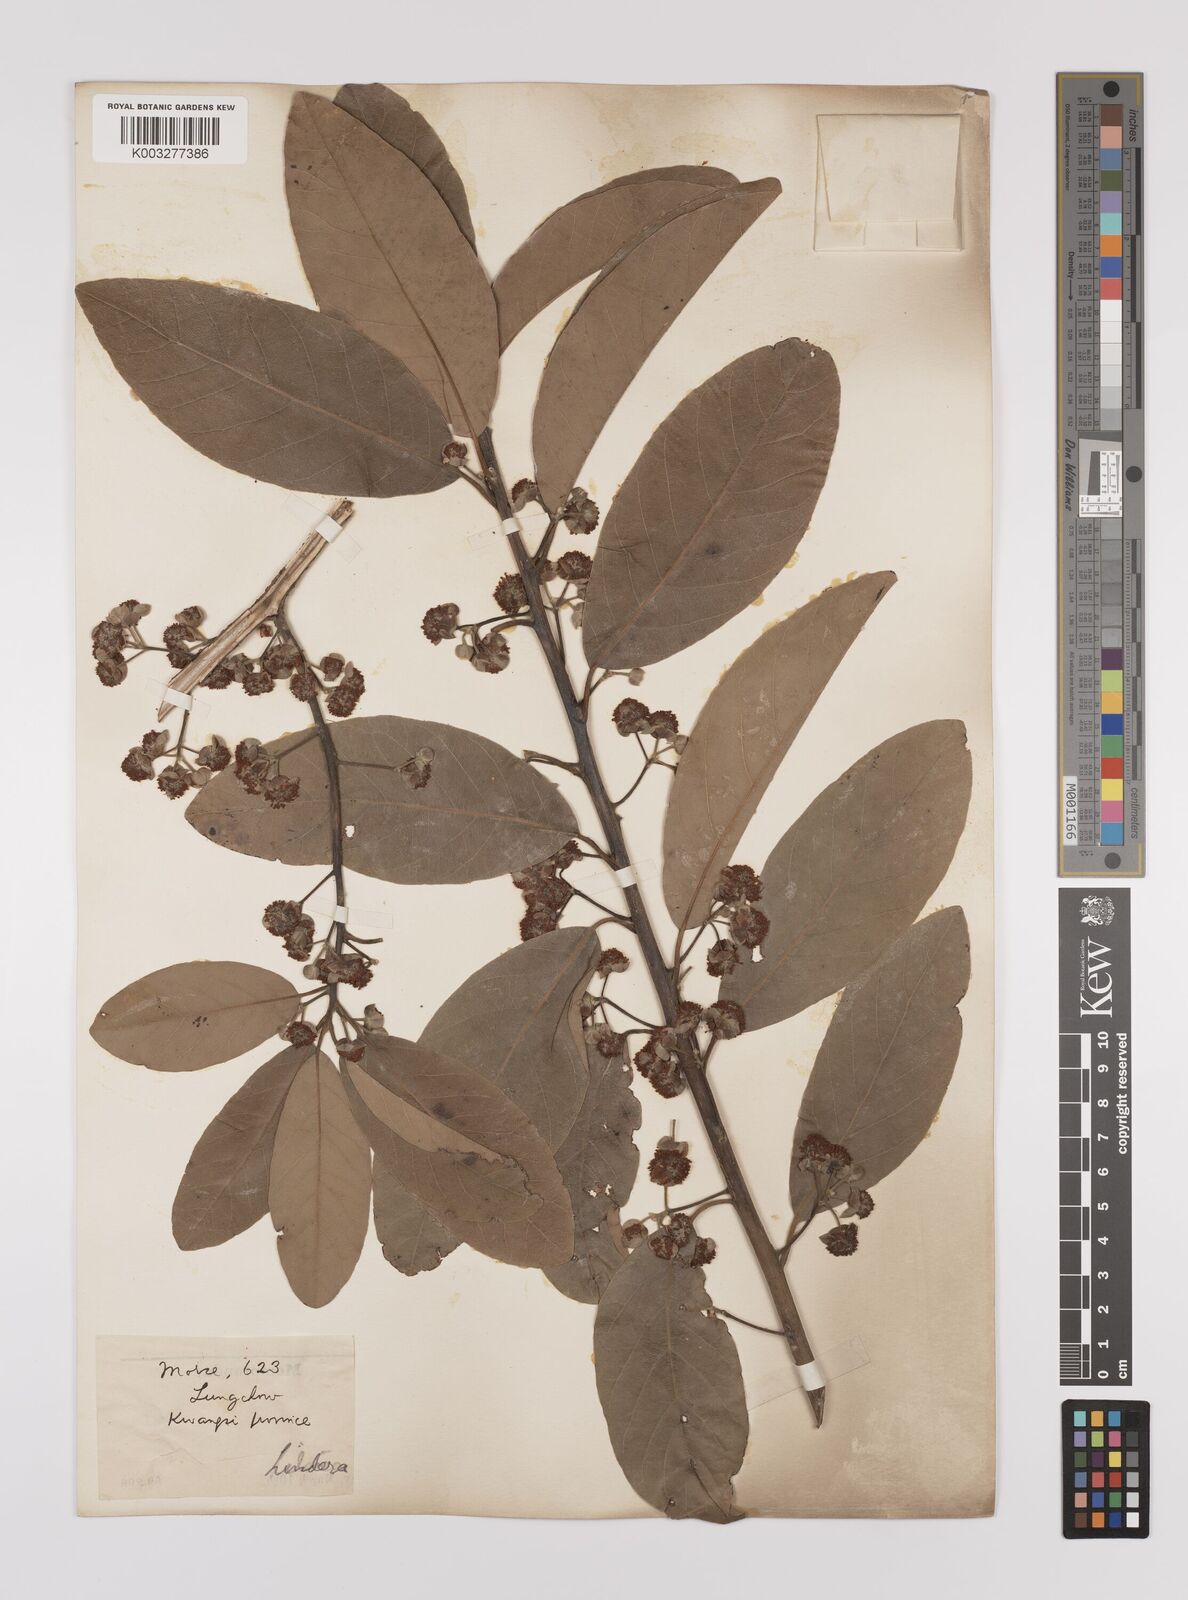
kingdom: Plantae
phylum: Tracheophyta
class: Magnoliopsida
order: Laurales
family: Lauraceae
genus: Litsea
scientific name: Litsea glutinosa
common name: Indian-laurel
